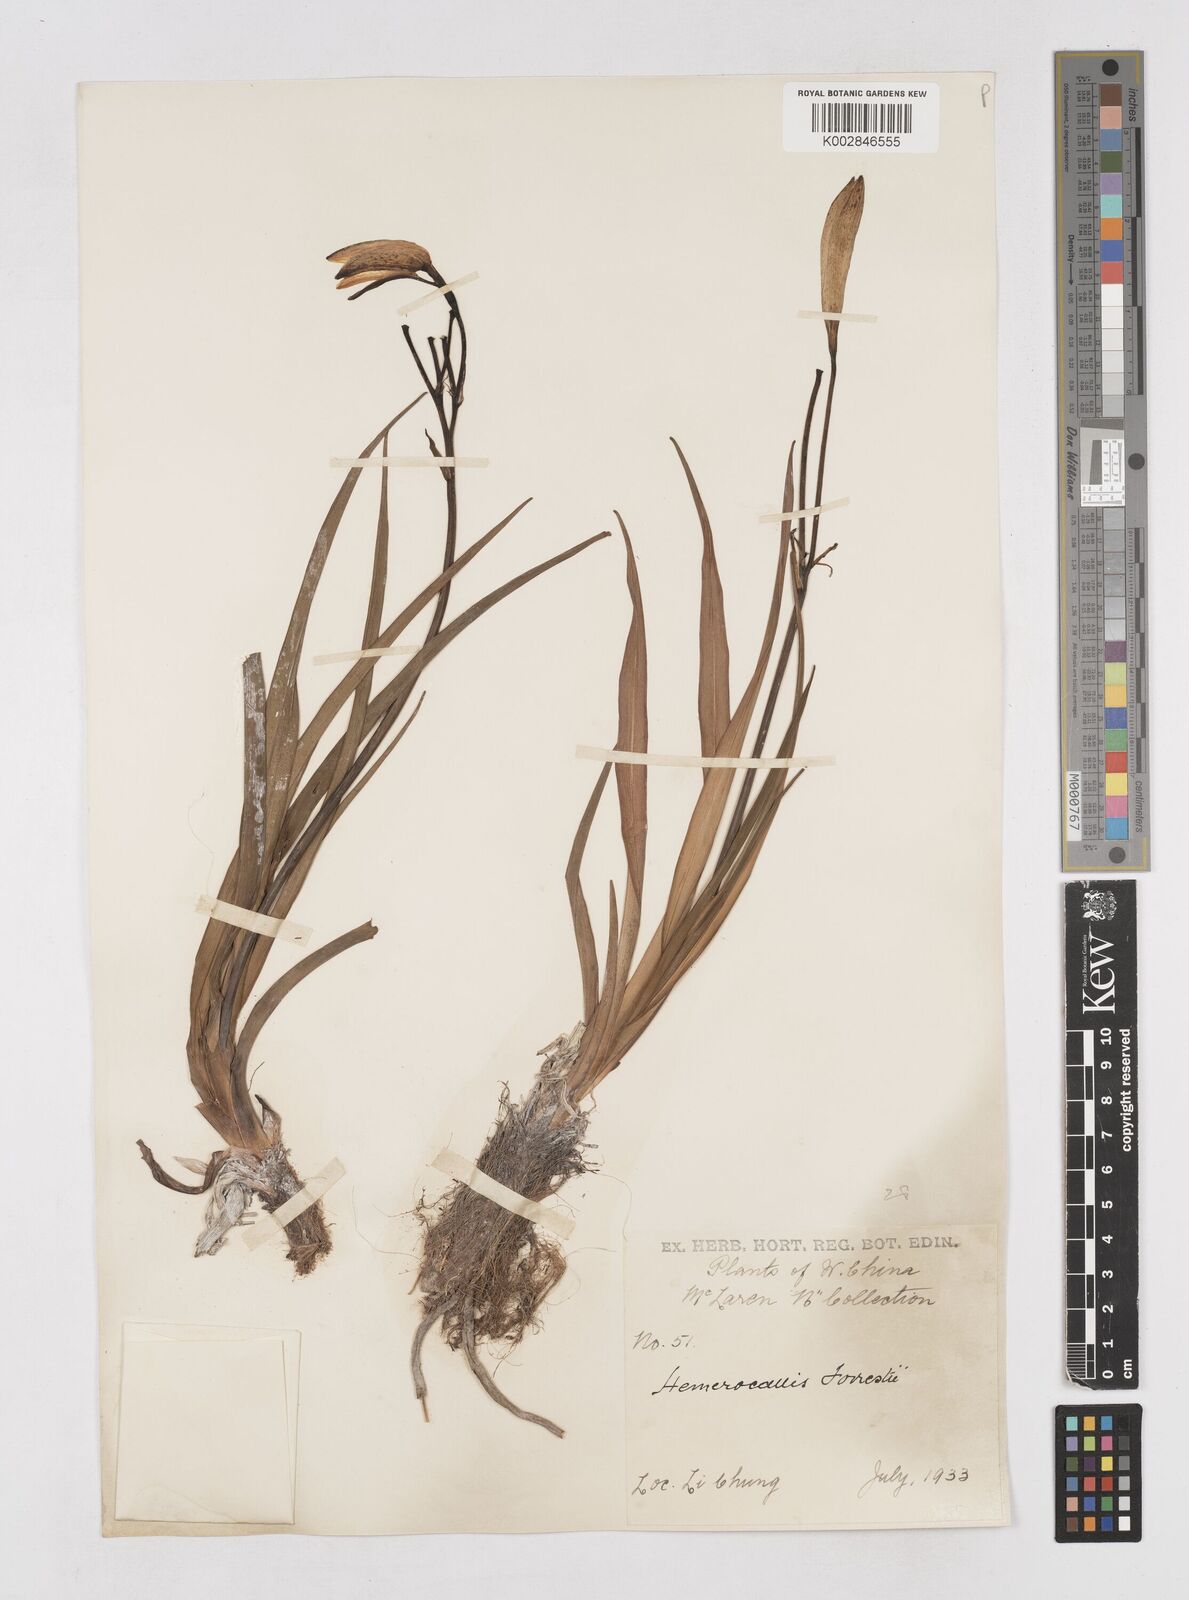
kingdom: Plantae
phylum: Tracheophyta
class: Liliopsida
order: Asparagales
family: Asphodelaceae
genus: Hemerocallis
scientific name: Hemerocallis forrestii
